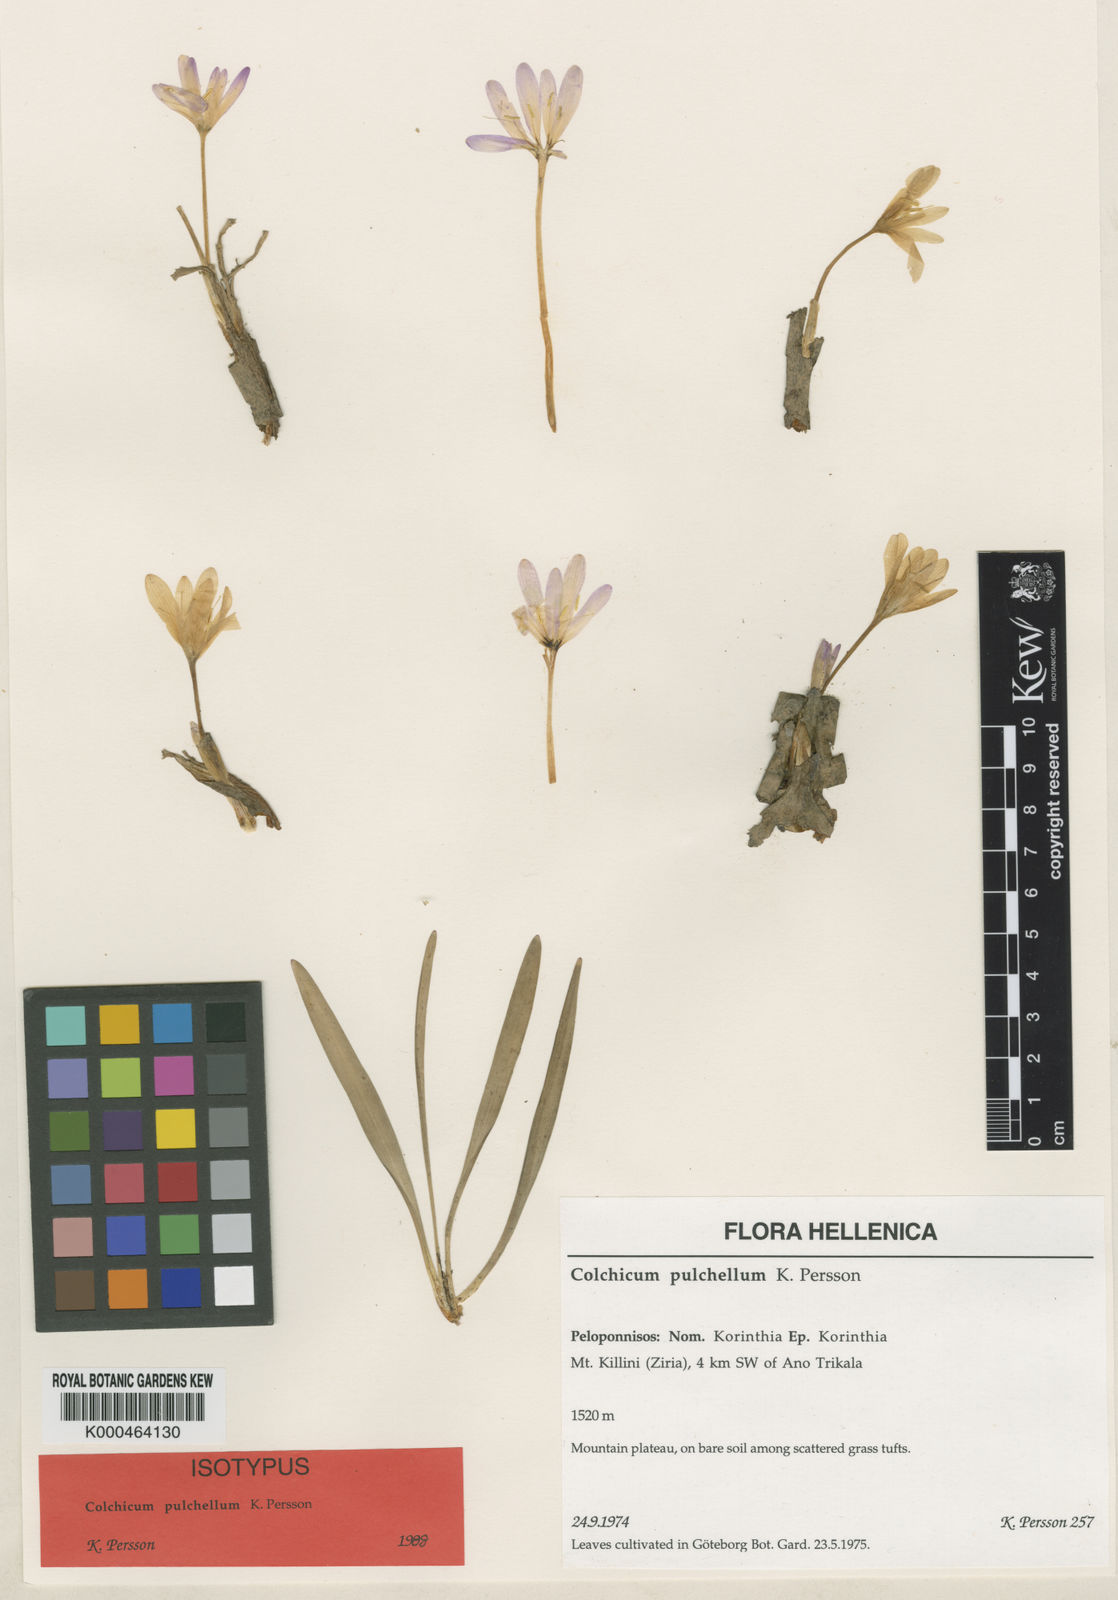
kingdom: Plantae
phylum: Tracheophyta
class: Liliopsida
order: Liliales
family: Colchicaceae
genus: Colchicum
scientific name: Colchicum pulchellum
